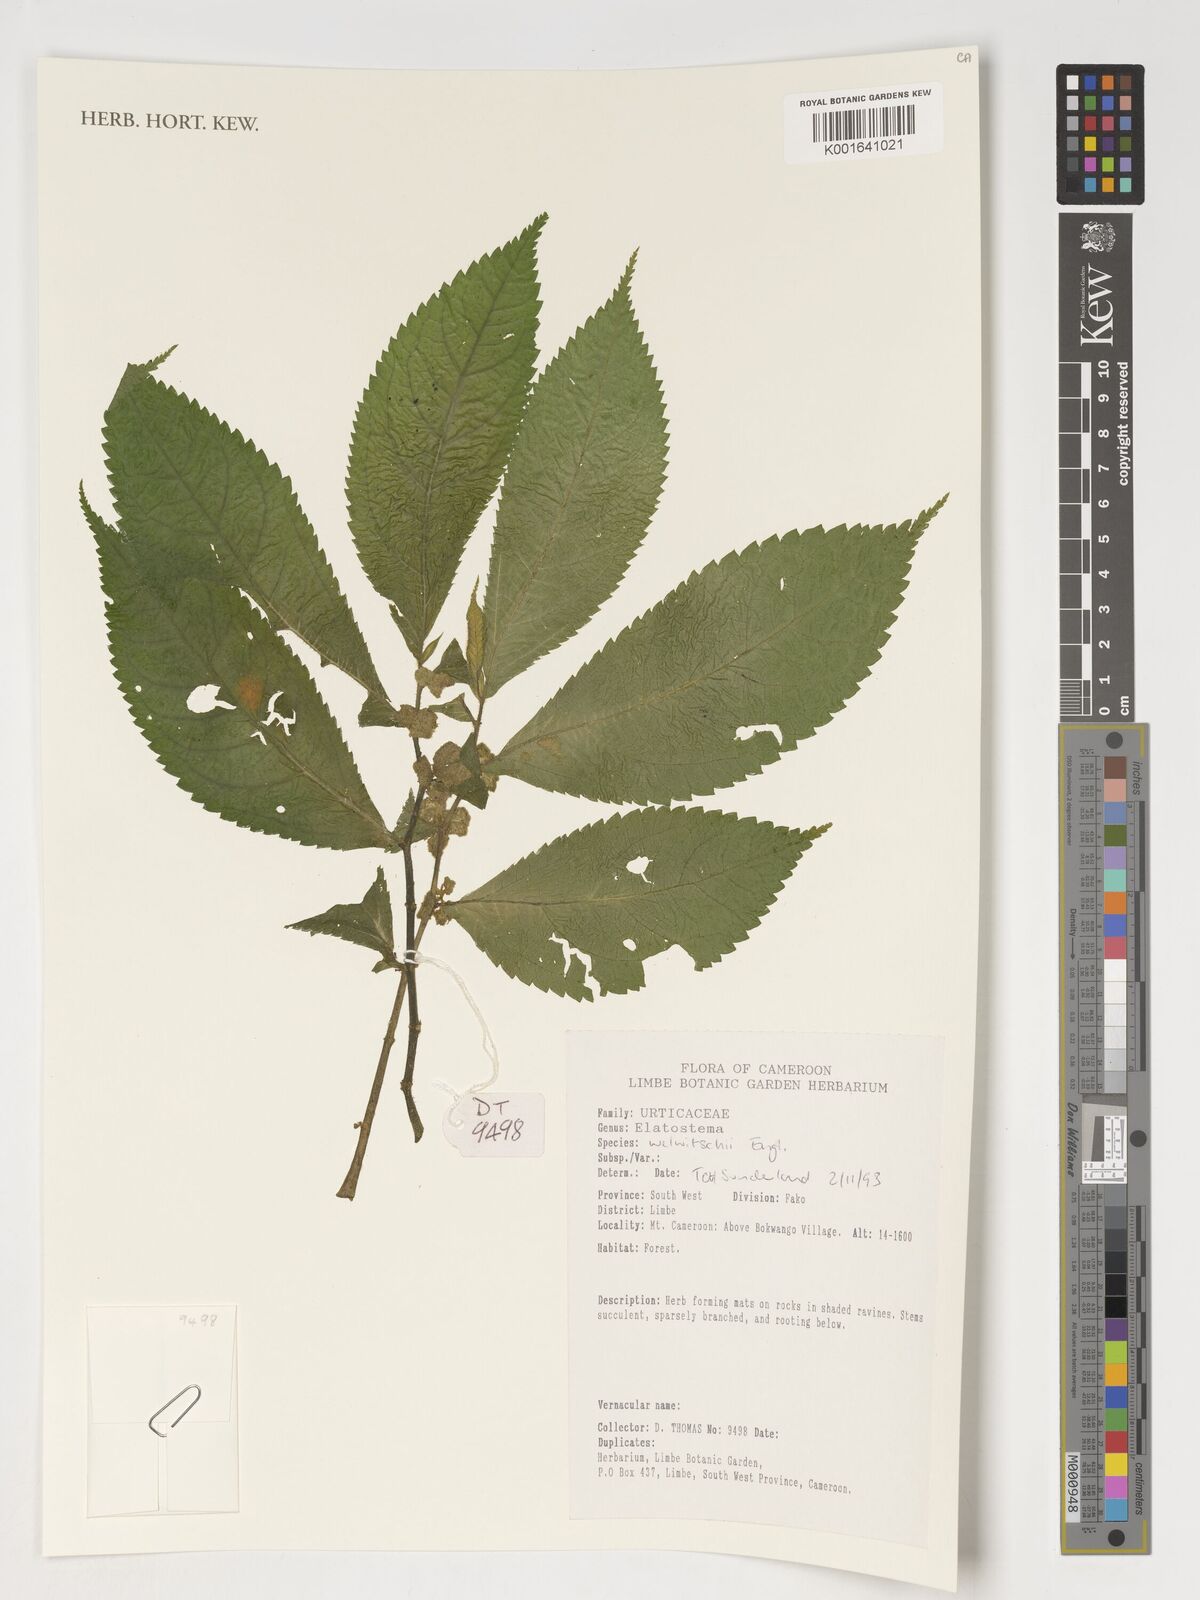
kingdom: Plantae
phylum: Tracheophyta
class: Magnoliopsida
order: Rosales
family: Urticaceae
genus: Elatostema
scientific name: Elatostema welwitschii
